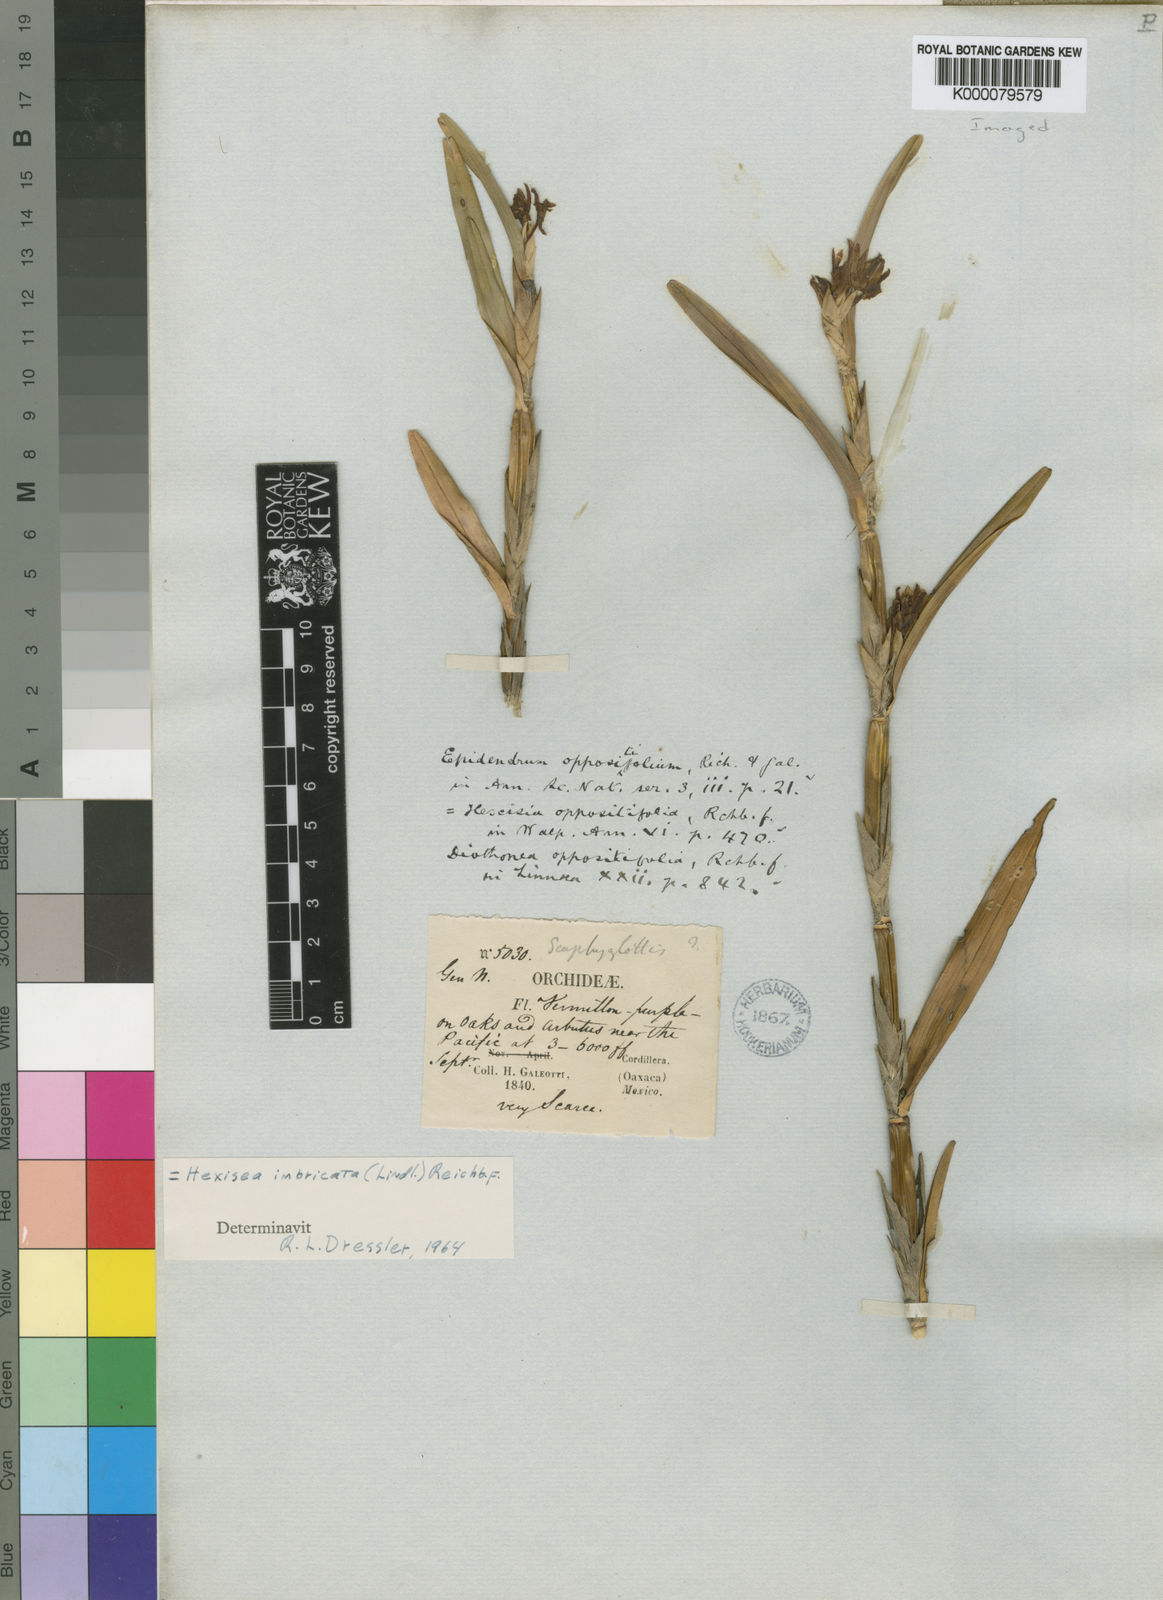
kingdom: Plantae
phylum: Tracheophyta
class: Liliopsida
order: Asparagales
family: Orchidaceae
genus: Scaphyglottis
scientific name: Scaphyglottis imbricata
